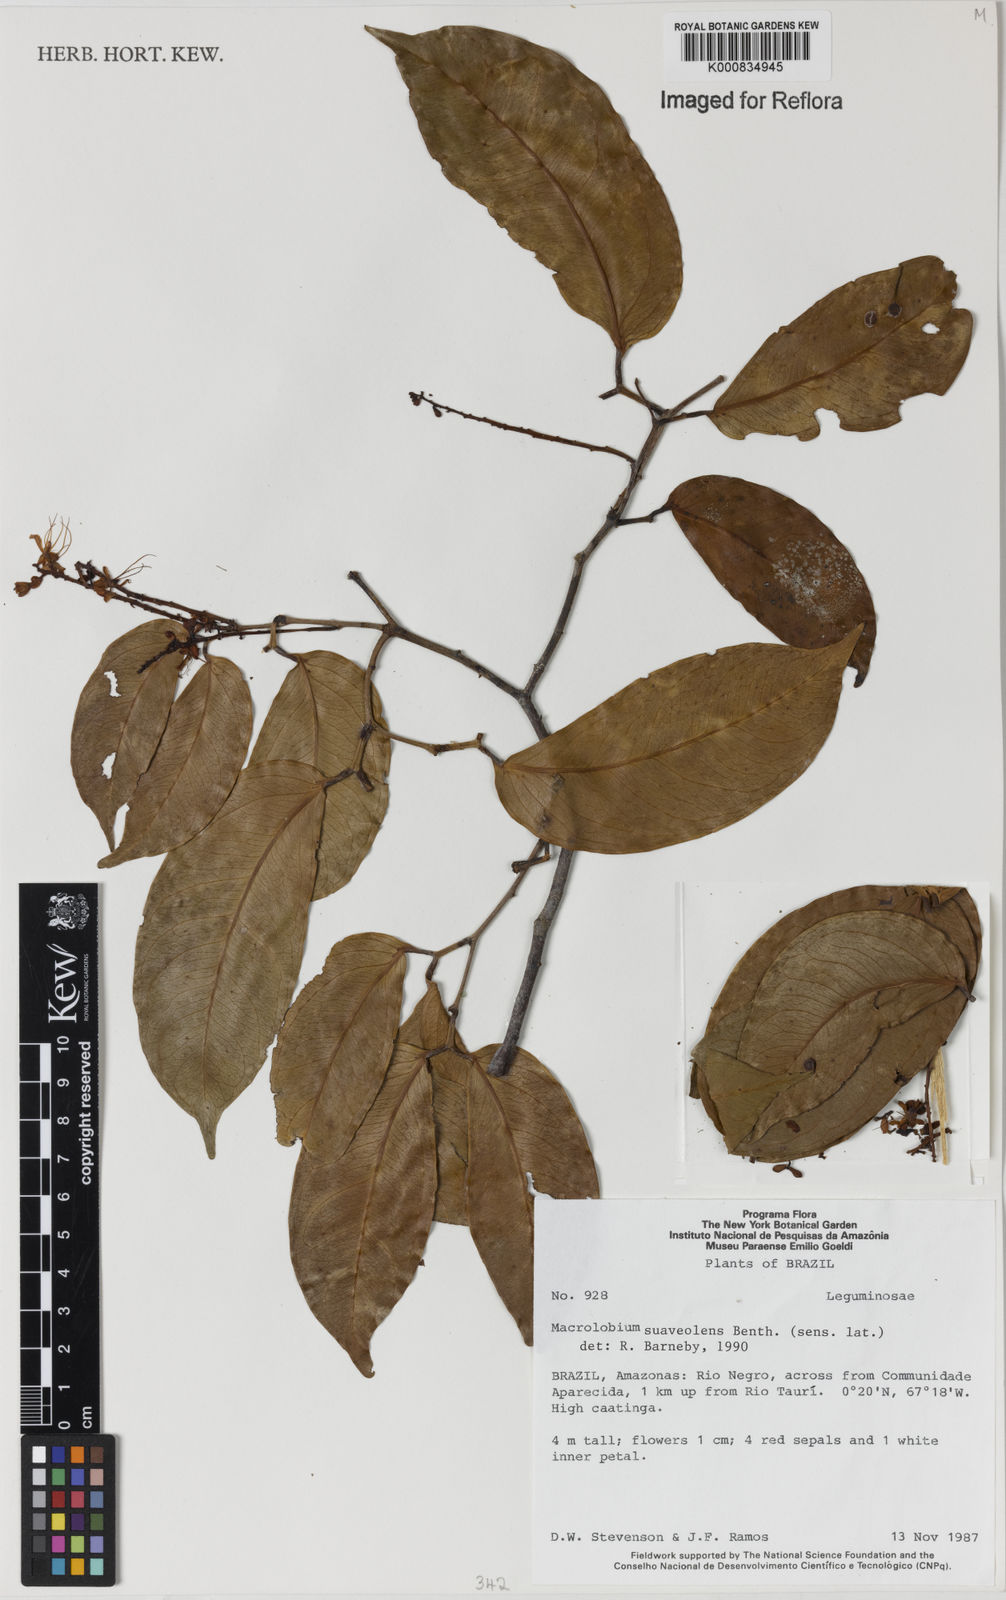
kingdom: Plantae
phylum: Tracheophyta
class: Magnoliopsida
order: Fabales
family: Fabaceae
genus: Macrolobium
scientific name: Macrolobium suaveolens
